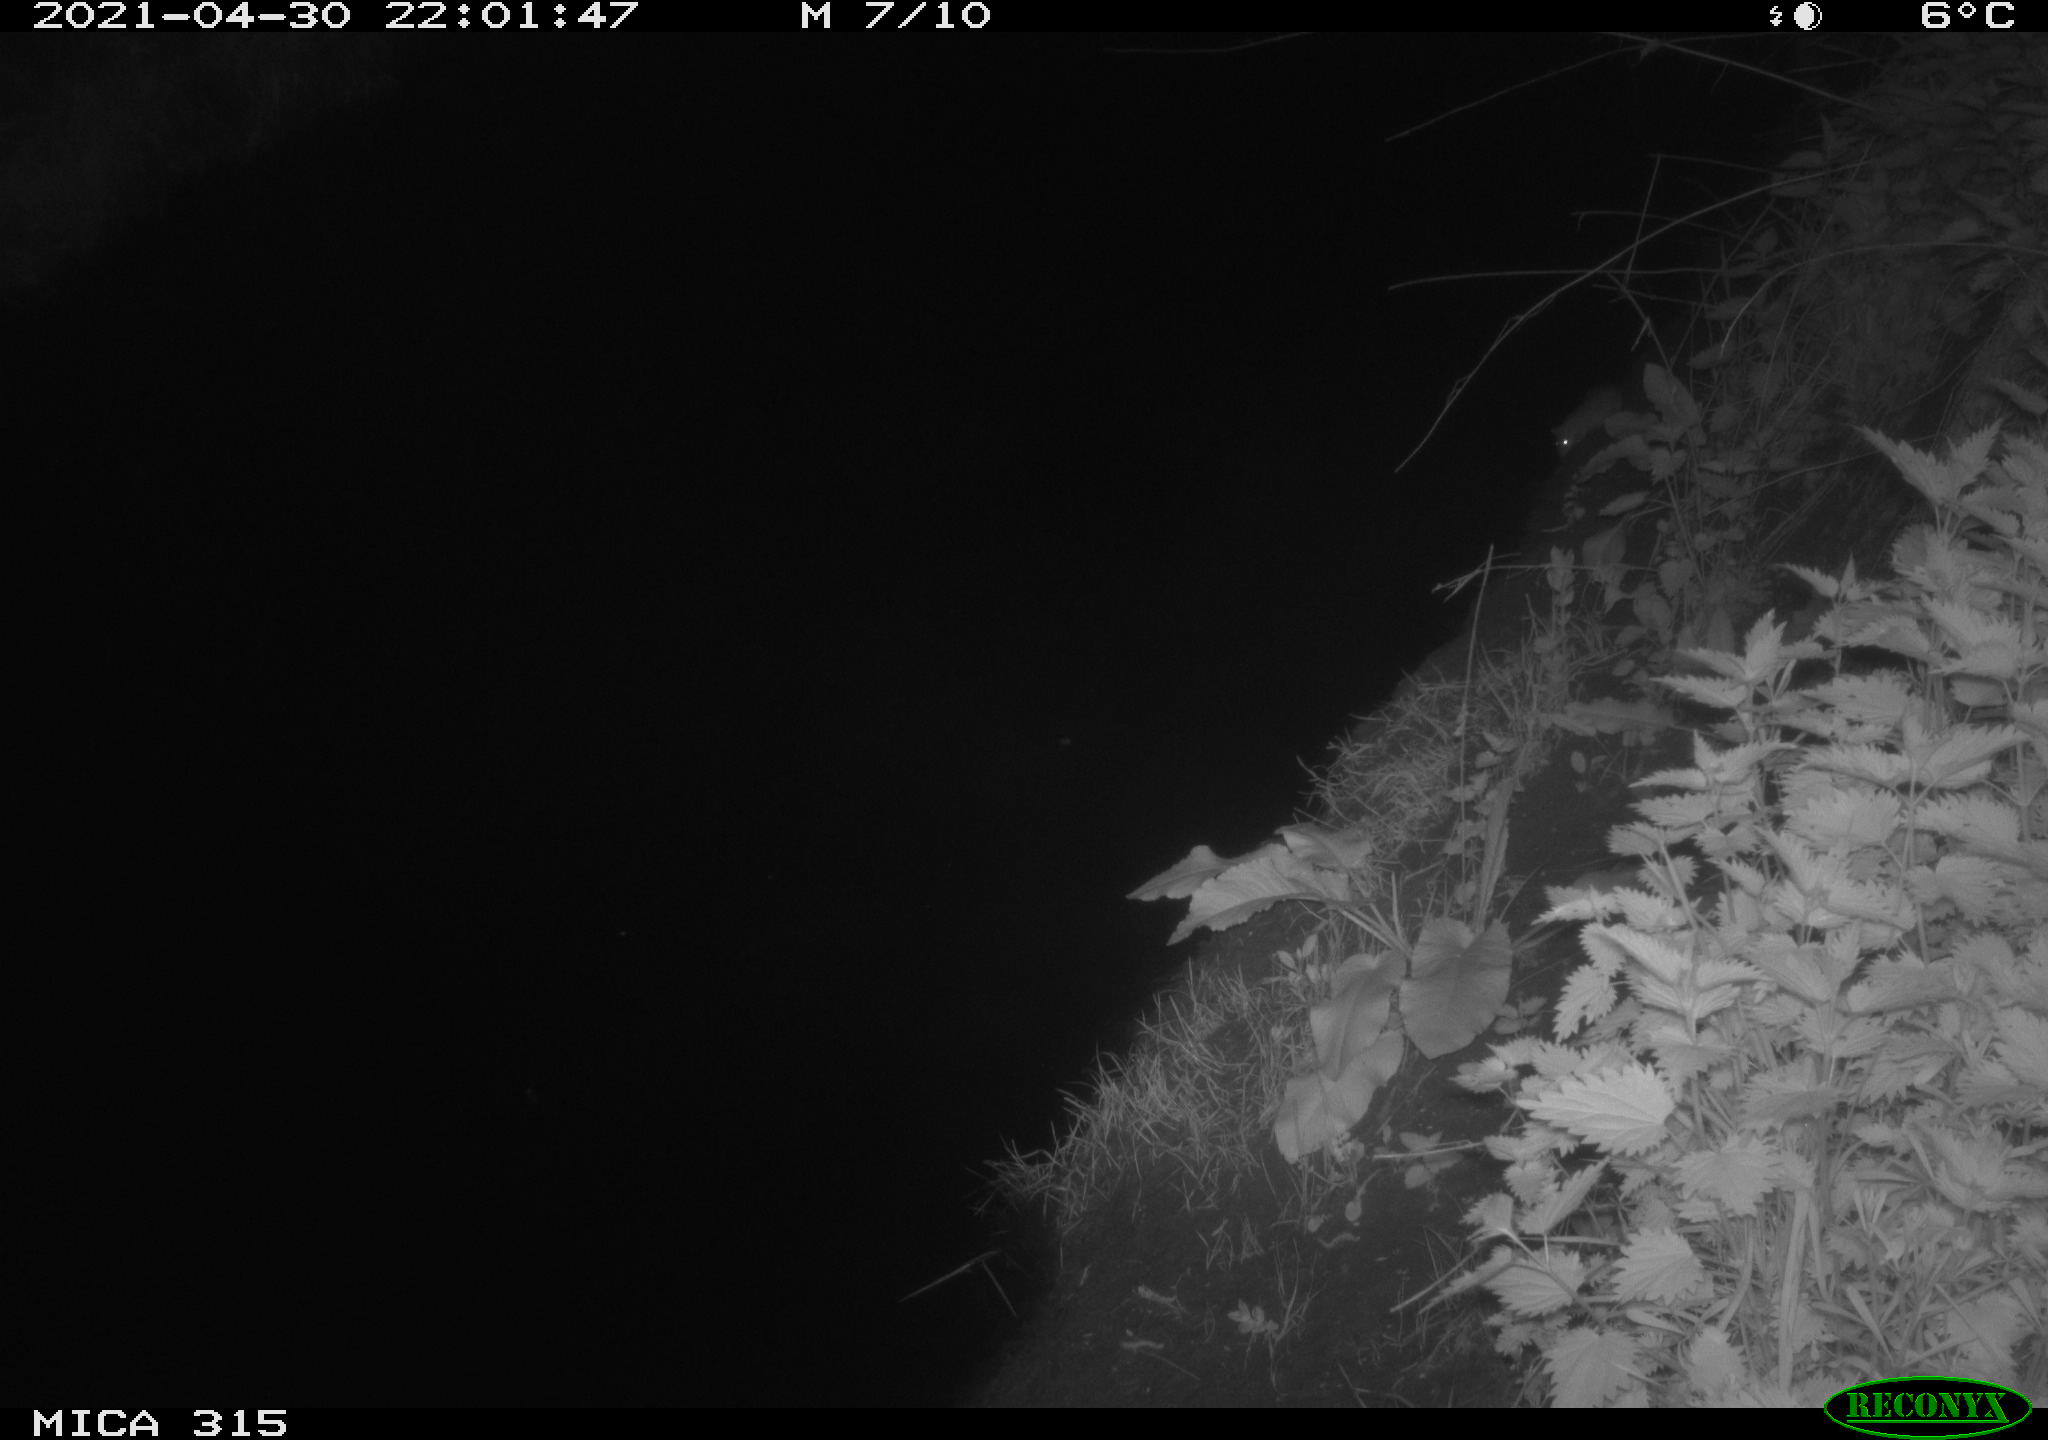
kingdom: Animalia
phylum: Chordata
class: Aves
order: Anseriformes
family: Anatidae
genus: Anas
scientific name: Anas
